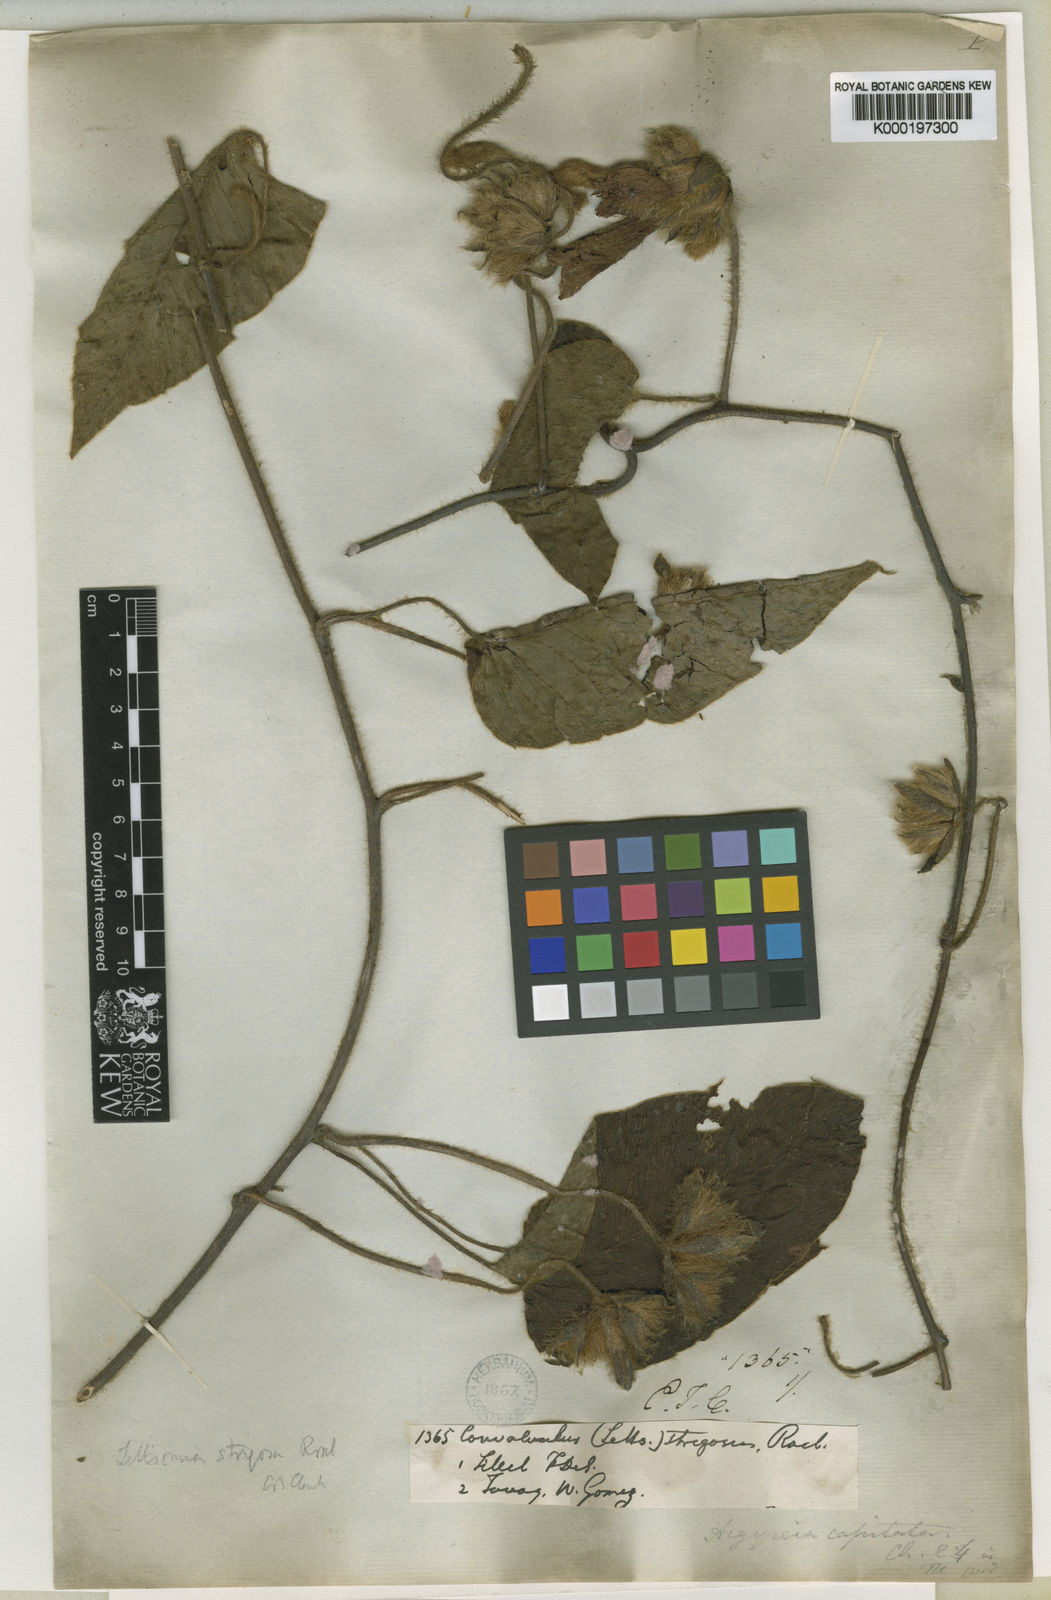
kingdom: Plantae
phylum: Tracheophyta
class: Magnoliopsida
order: Solanales
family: Convolvulaceae
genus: Argyreia
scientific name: Argyreia capitiformis
